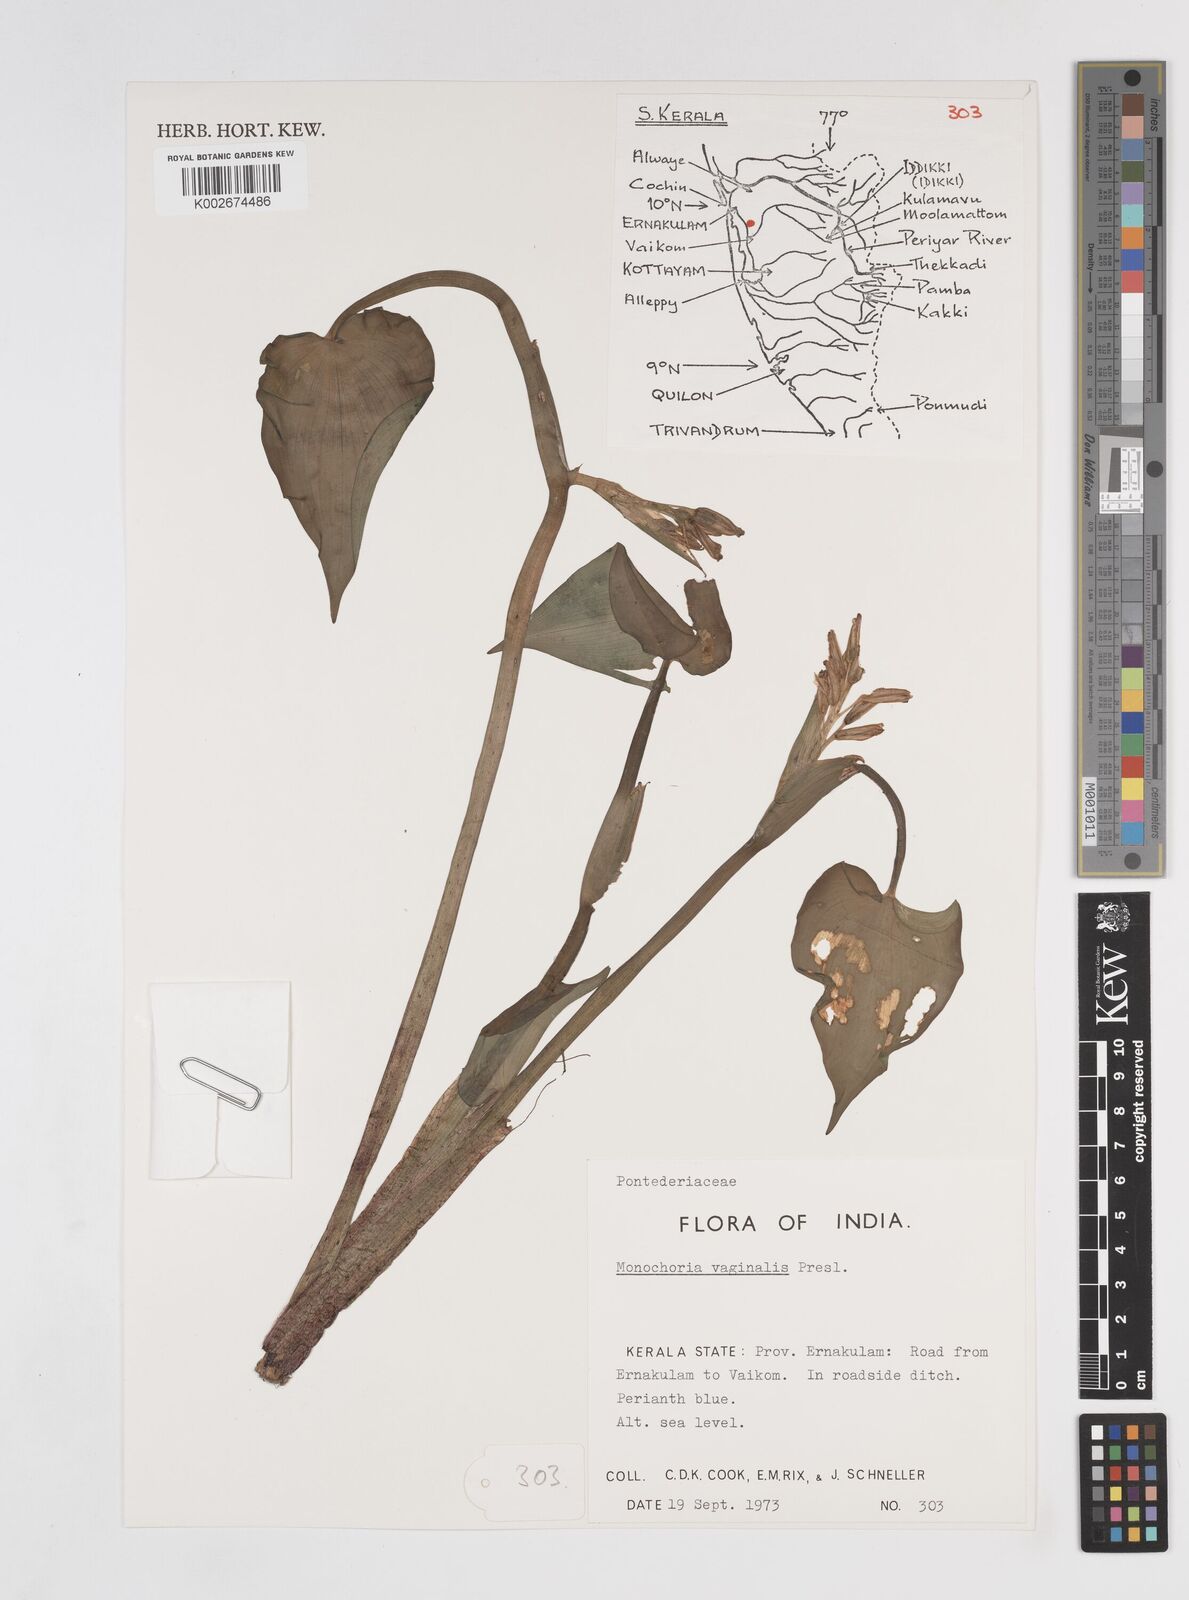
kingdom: Plantae
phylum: Tracheophyta
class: Liliopsida
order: Commelinales
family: Pontederiaceae
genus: Pontederia
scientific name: Pontederia vaginalis
